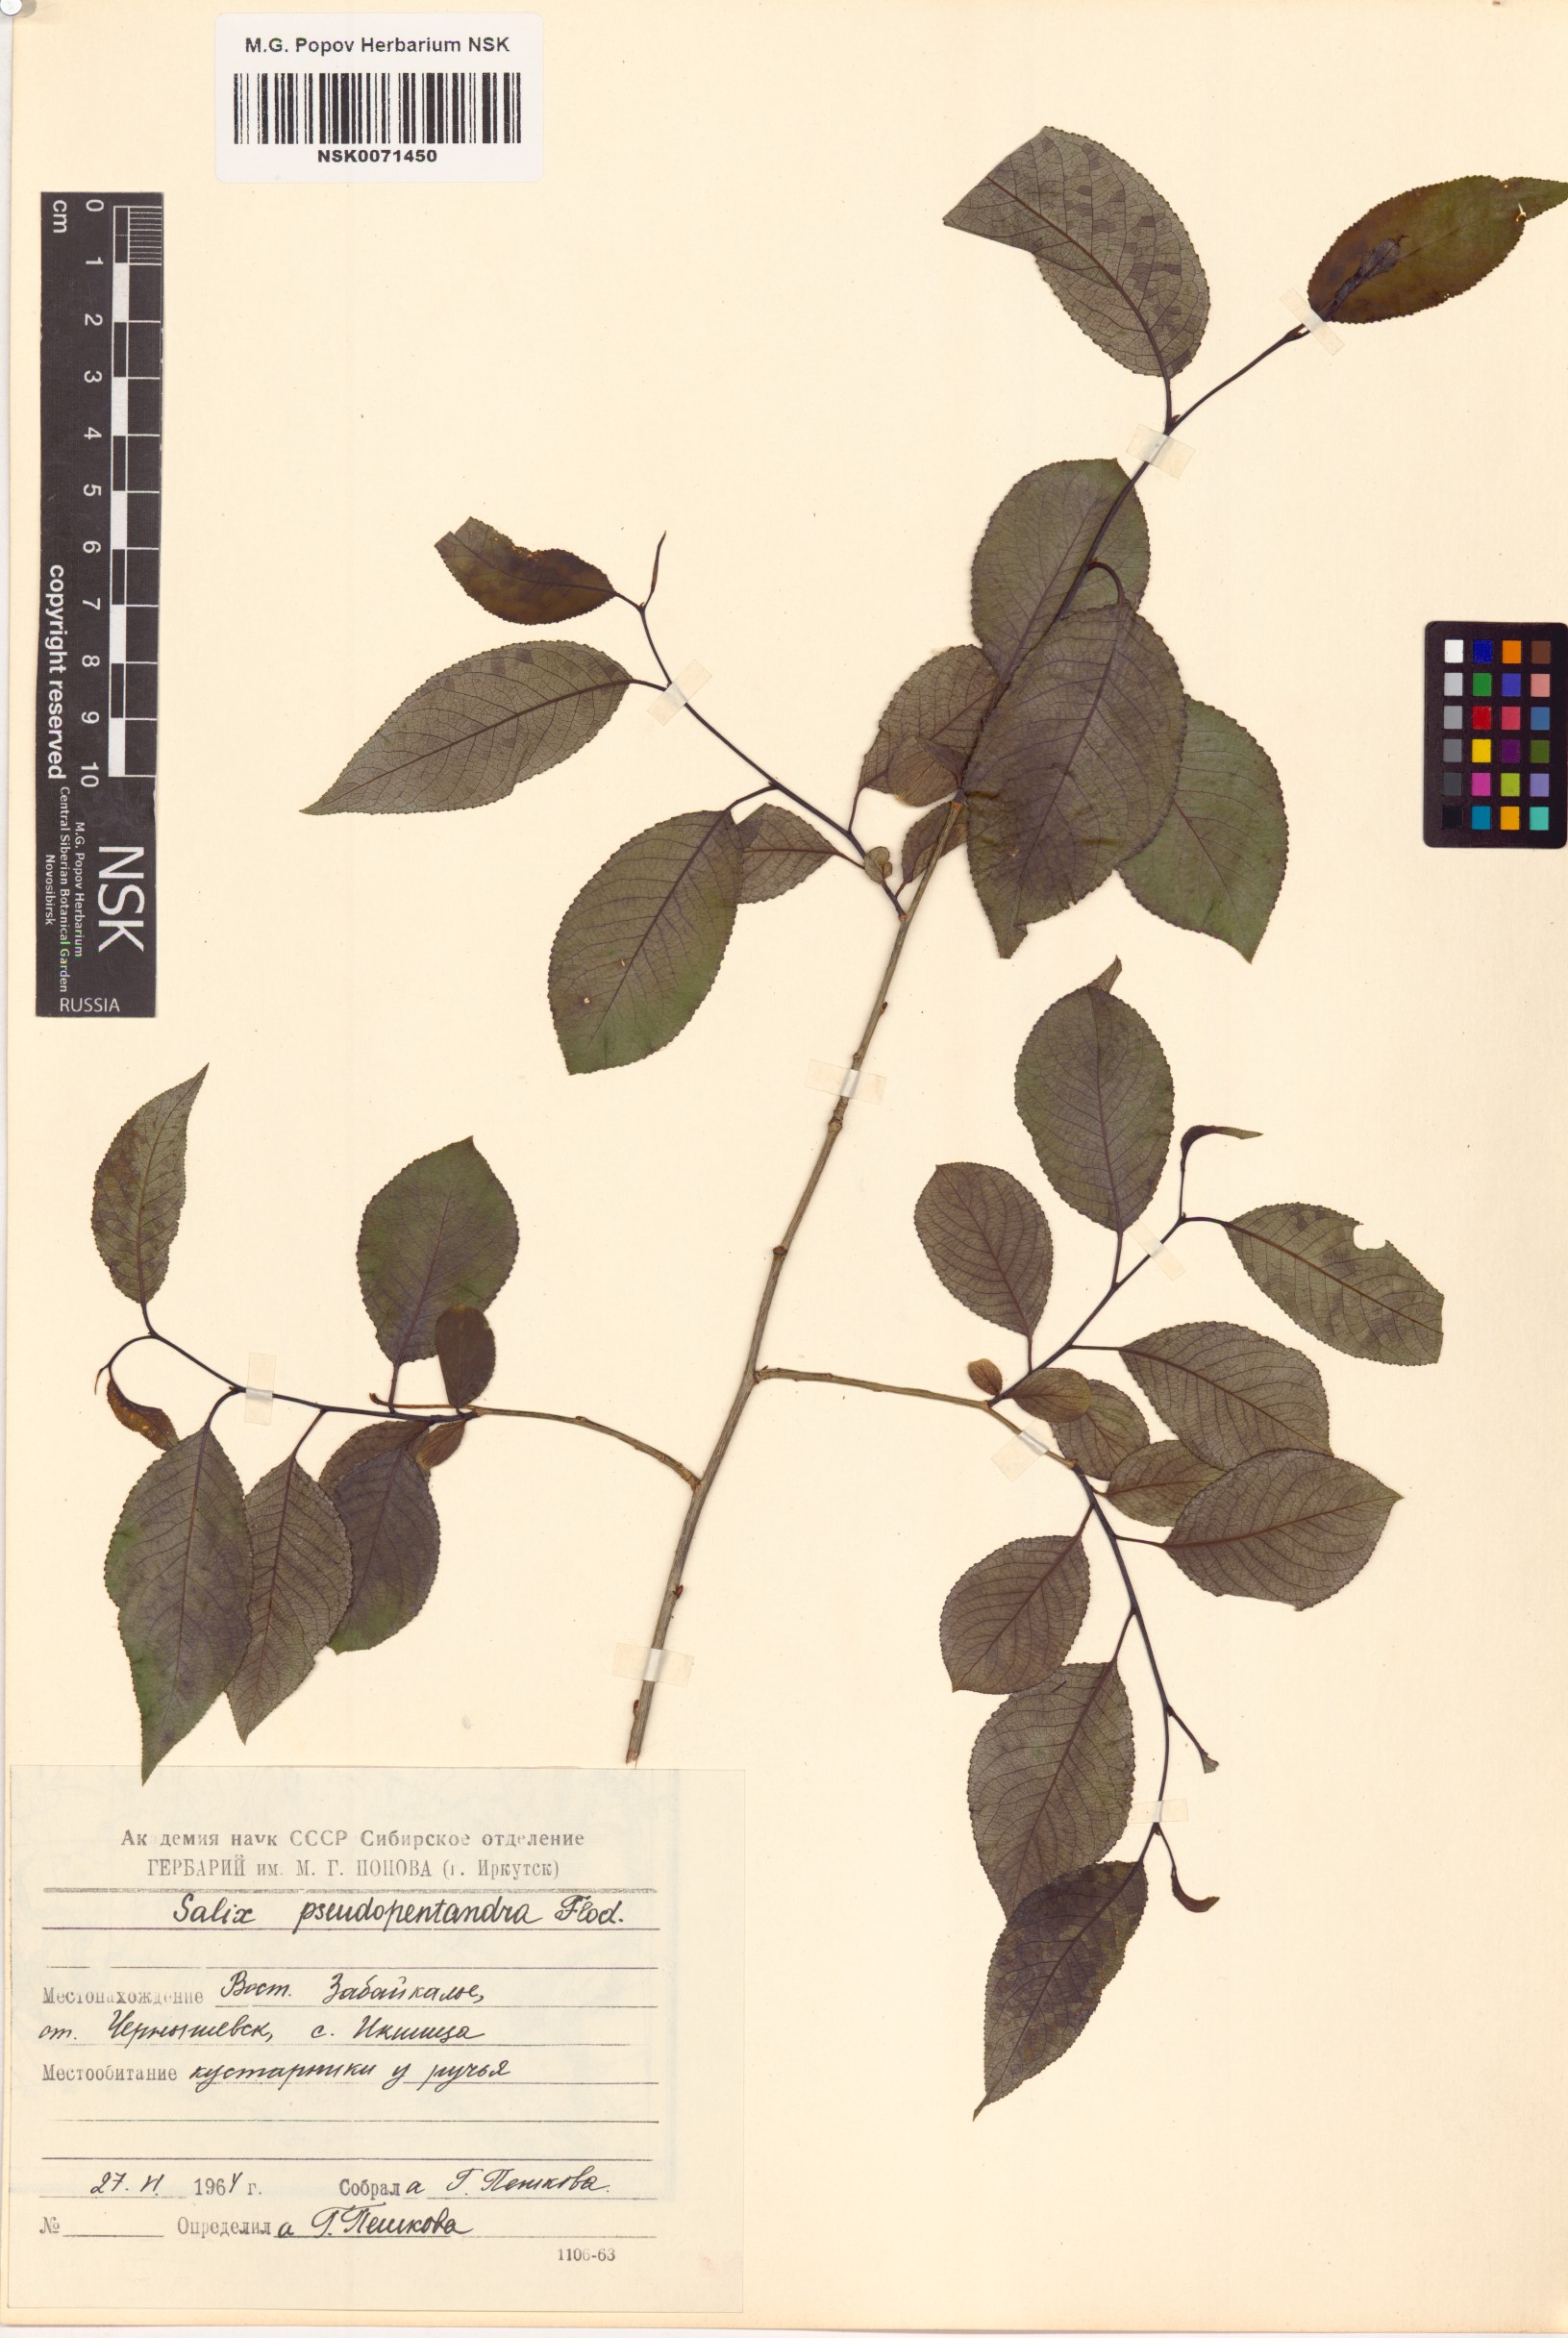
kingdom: Plantae
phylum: Tracheophyta
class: Magnoliopsida
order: Malpighiales
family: Salicaceae
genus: Salix
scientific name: Salix pseudopentandra
